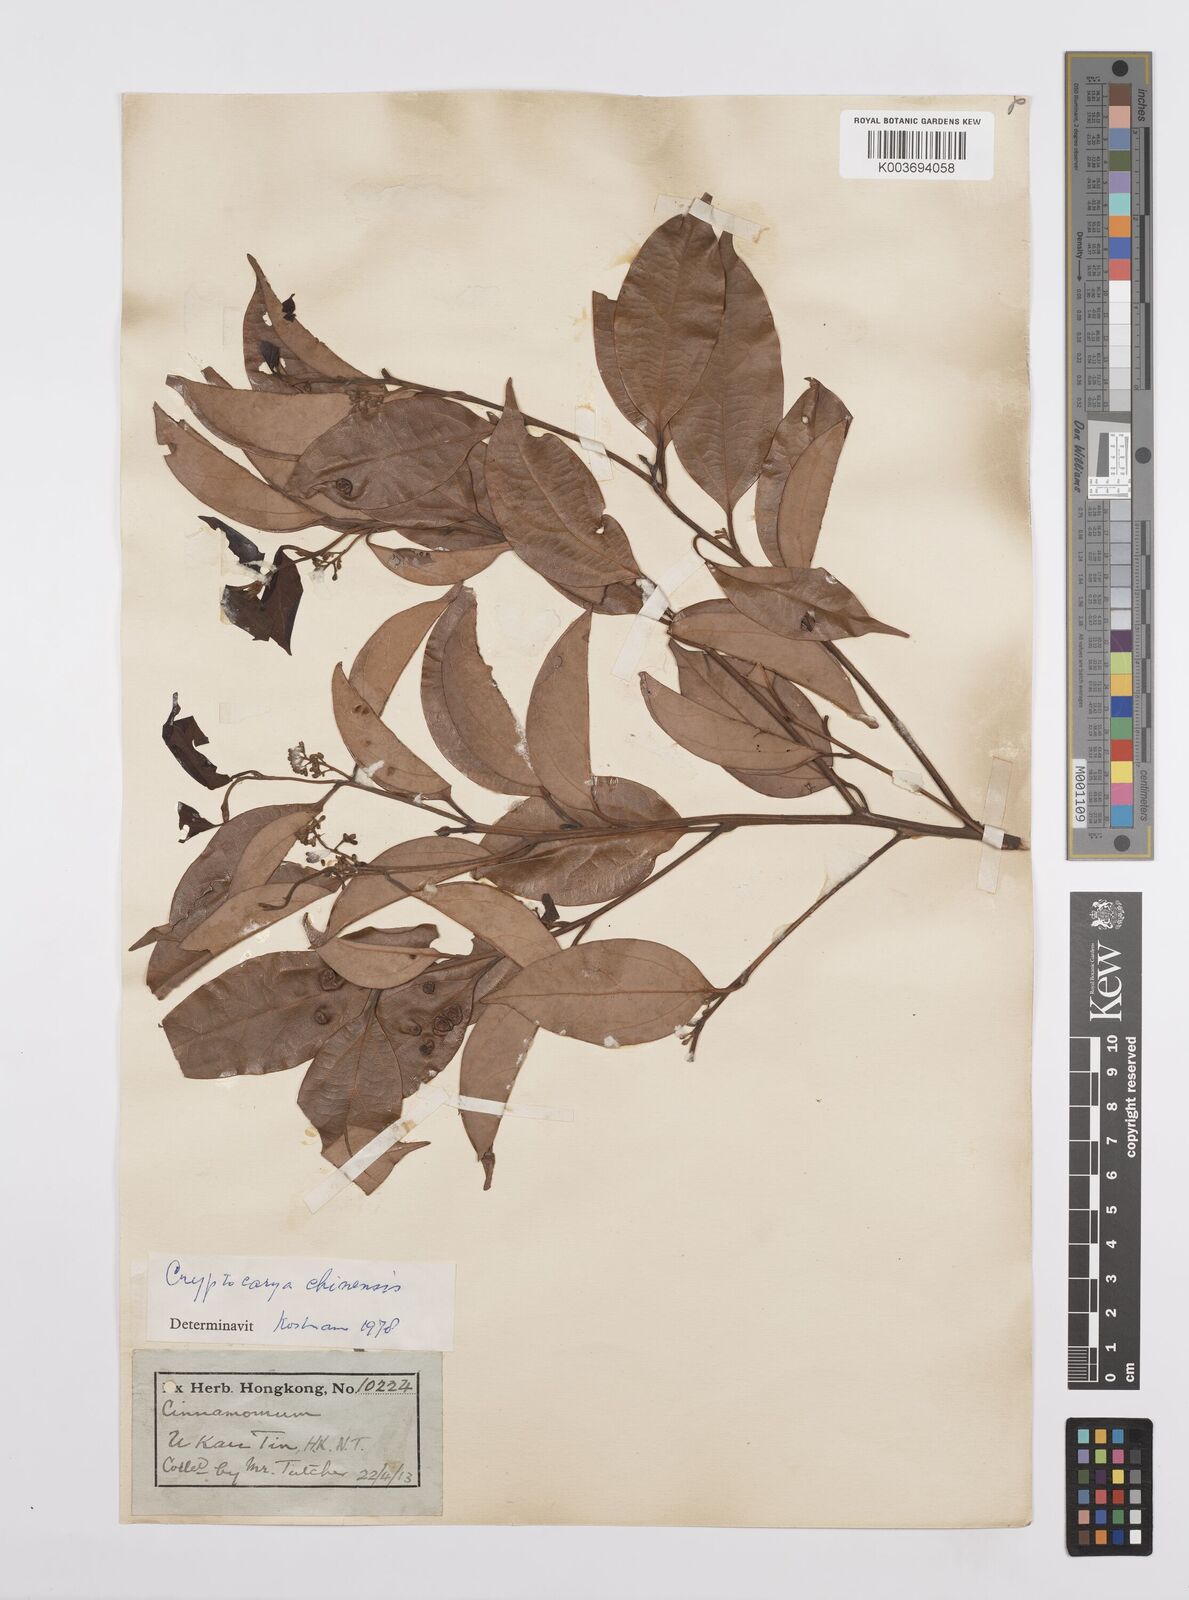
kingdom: Plantae
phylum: Tracheophyta
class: Magnoliopsida
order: Laurales
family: Lauraceae
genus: Cryptocarya
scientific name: Cryptocarya chinensis
